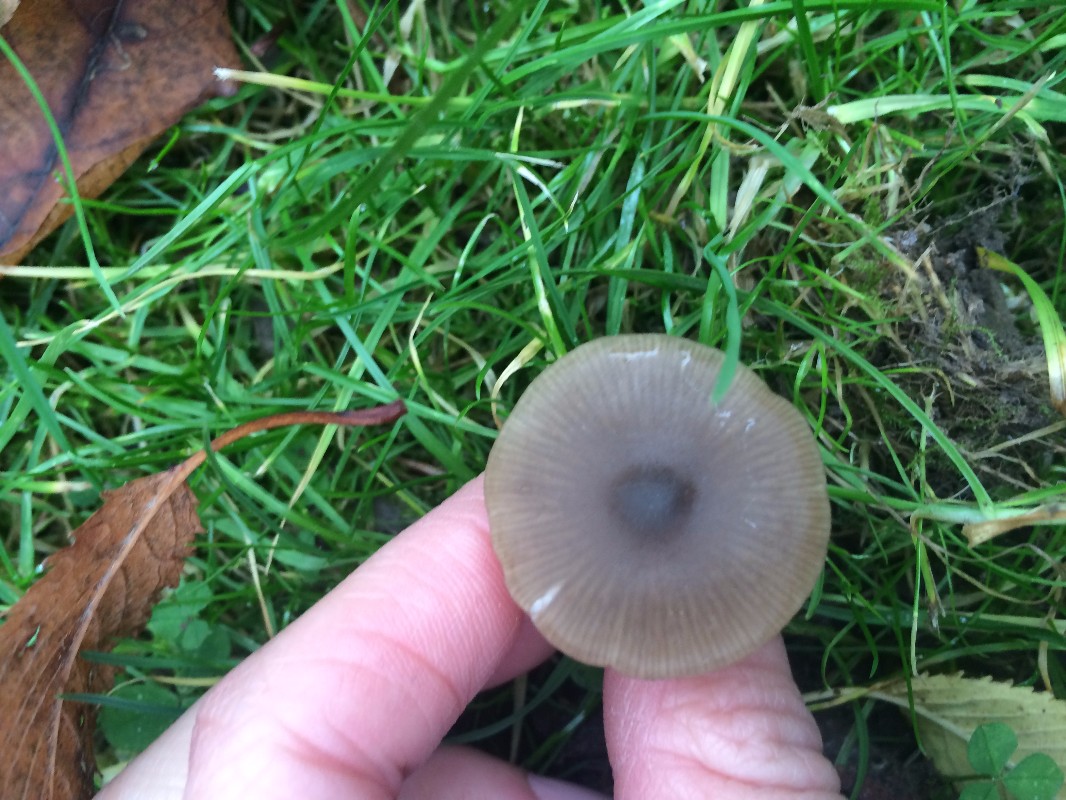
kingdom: Fungi
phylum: Basidiomycota
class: Agaricomycetes
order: Agaricales
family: Entolomataceae
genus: Entoloma
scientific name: Entoloma subradiatum
